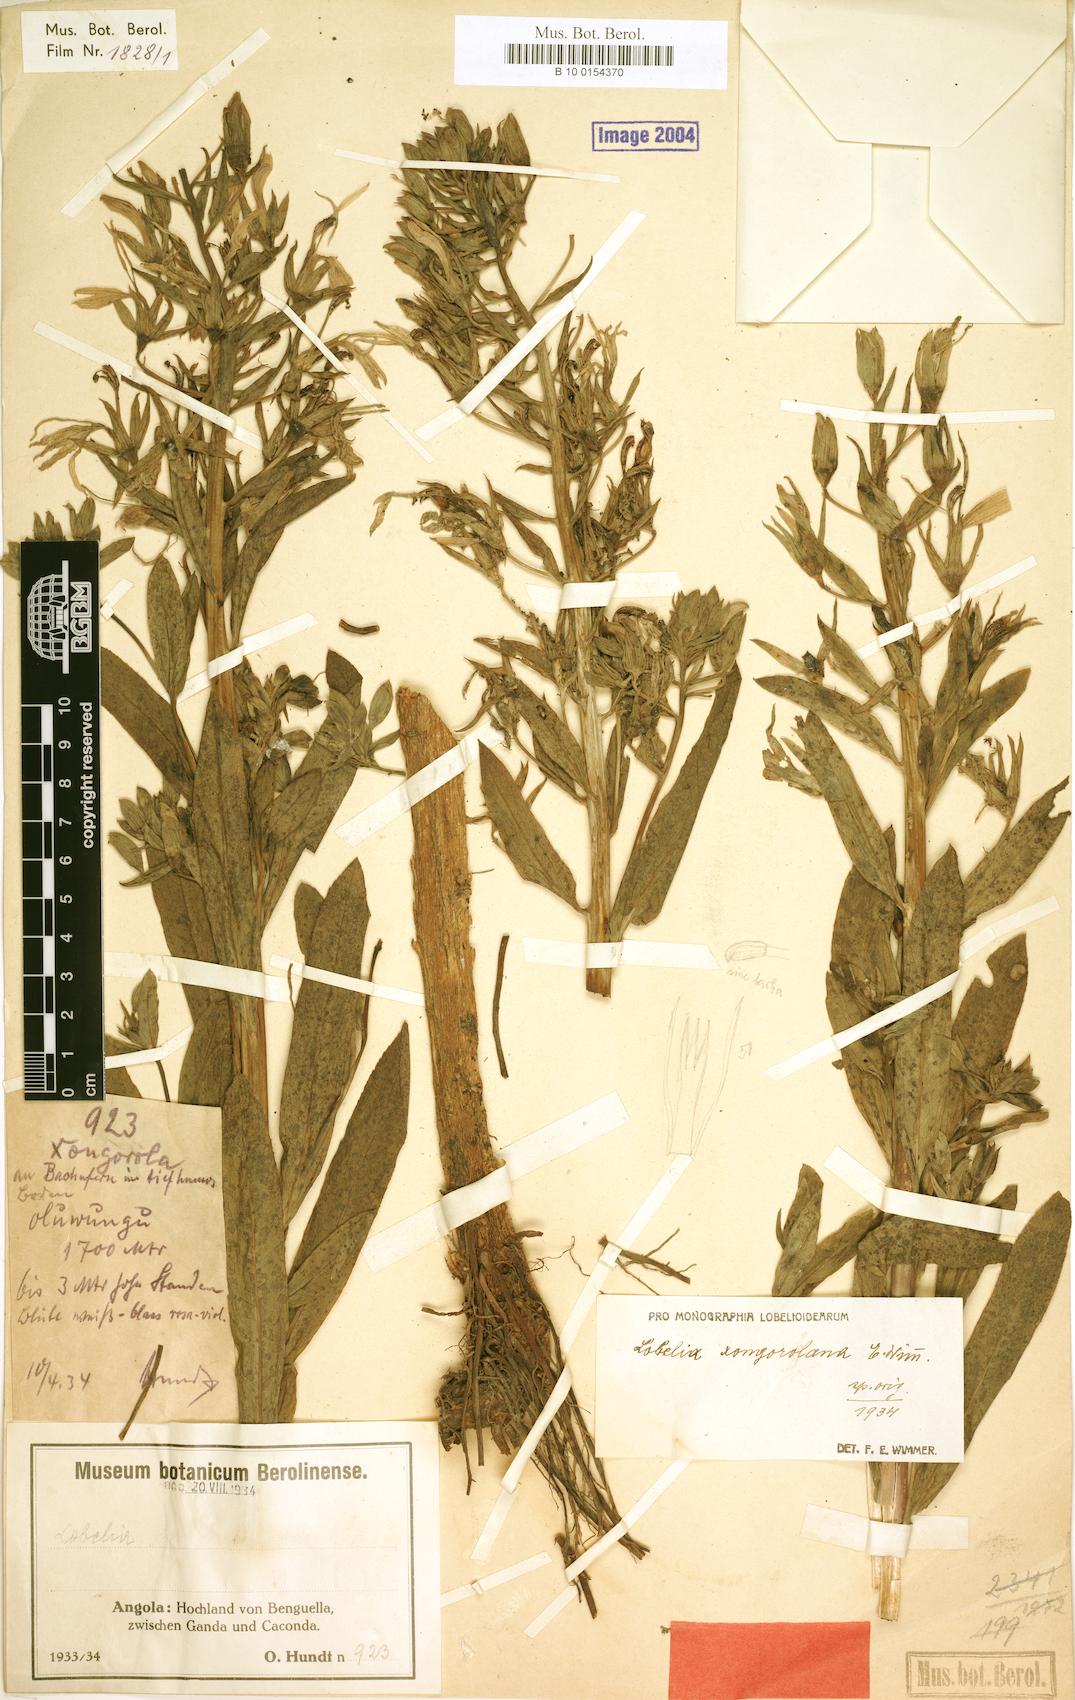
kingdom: Plantae
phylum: Tracheophyta
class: Magnoliopsida
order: Asterales
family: Campanulaceae
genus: Lobelia
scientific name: Lobelia xongorolana
